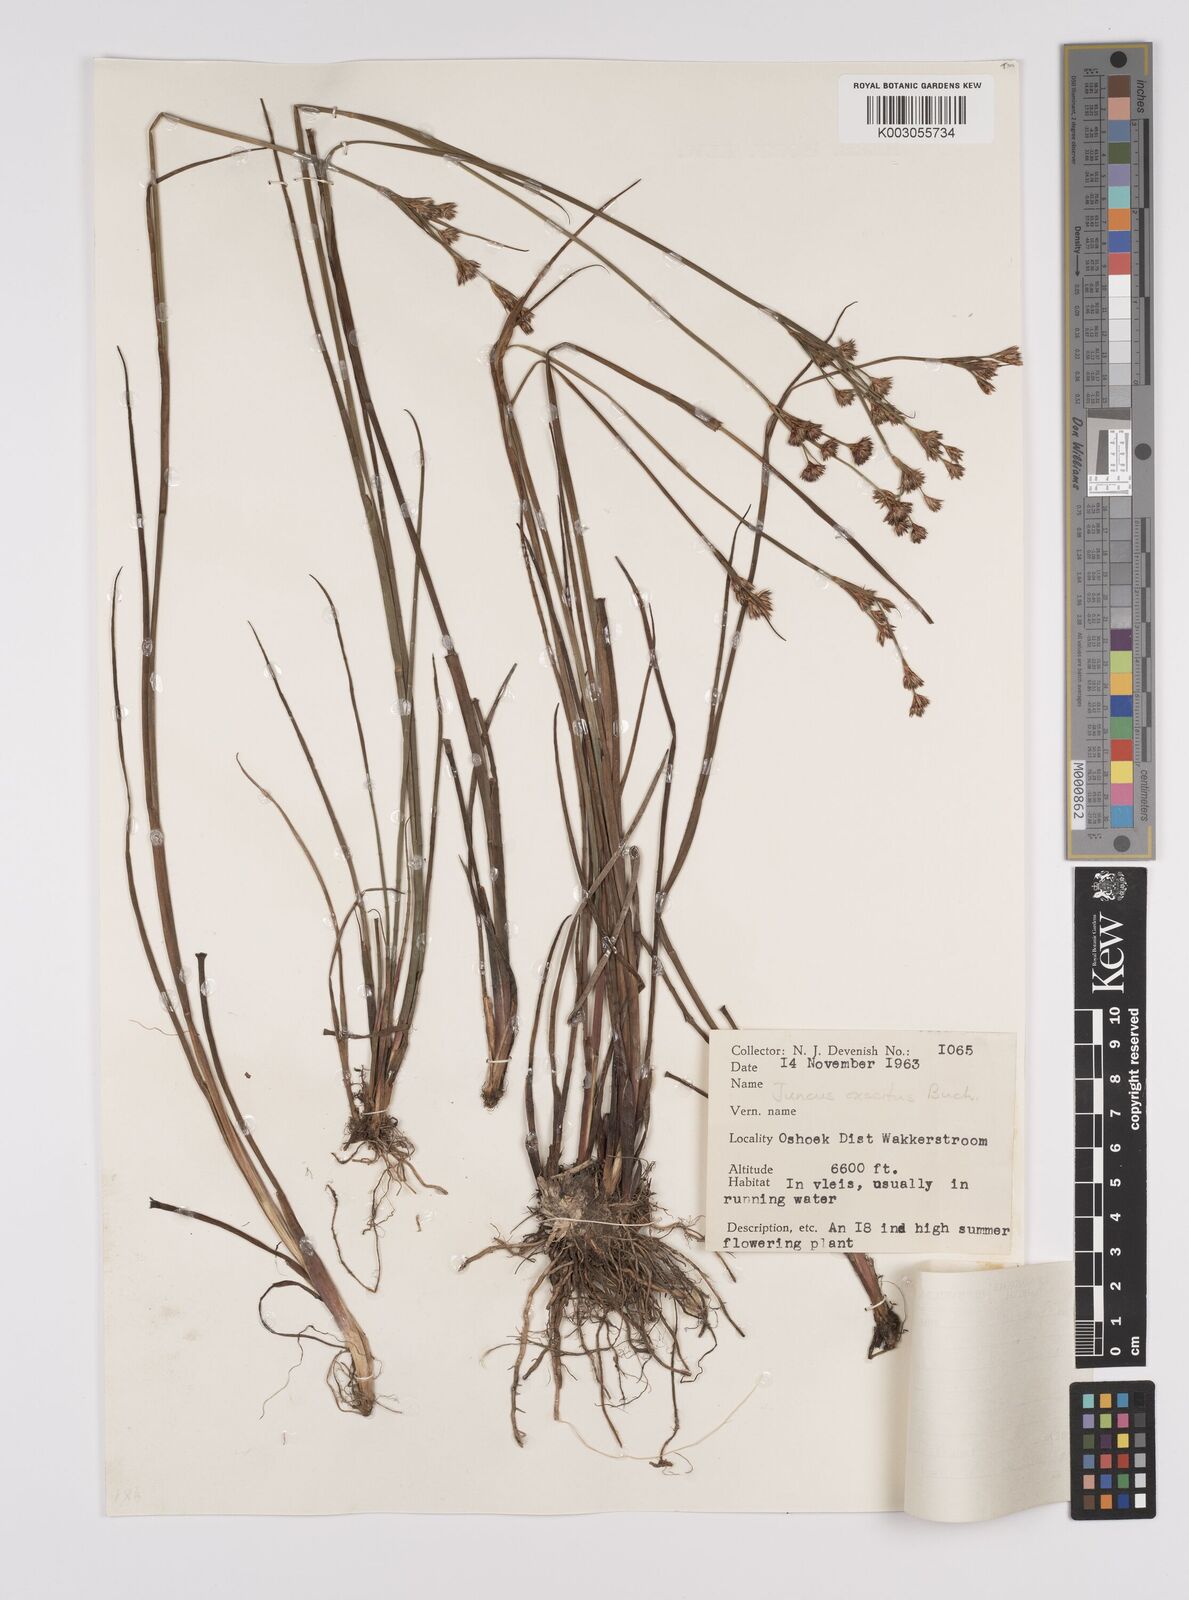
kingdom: Plantae
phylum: Tracheophyta
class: Liliopsida
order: Poales
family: Juncaceae
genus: Juncus
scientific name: Juncus exsertus
